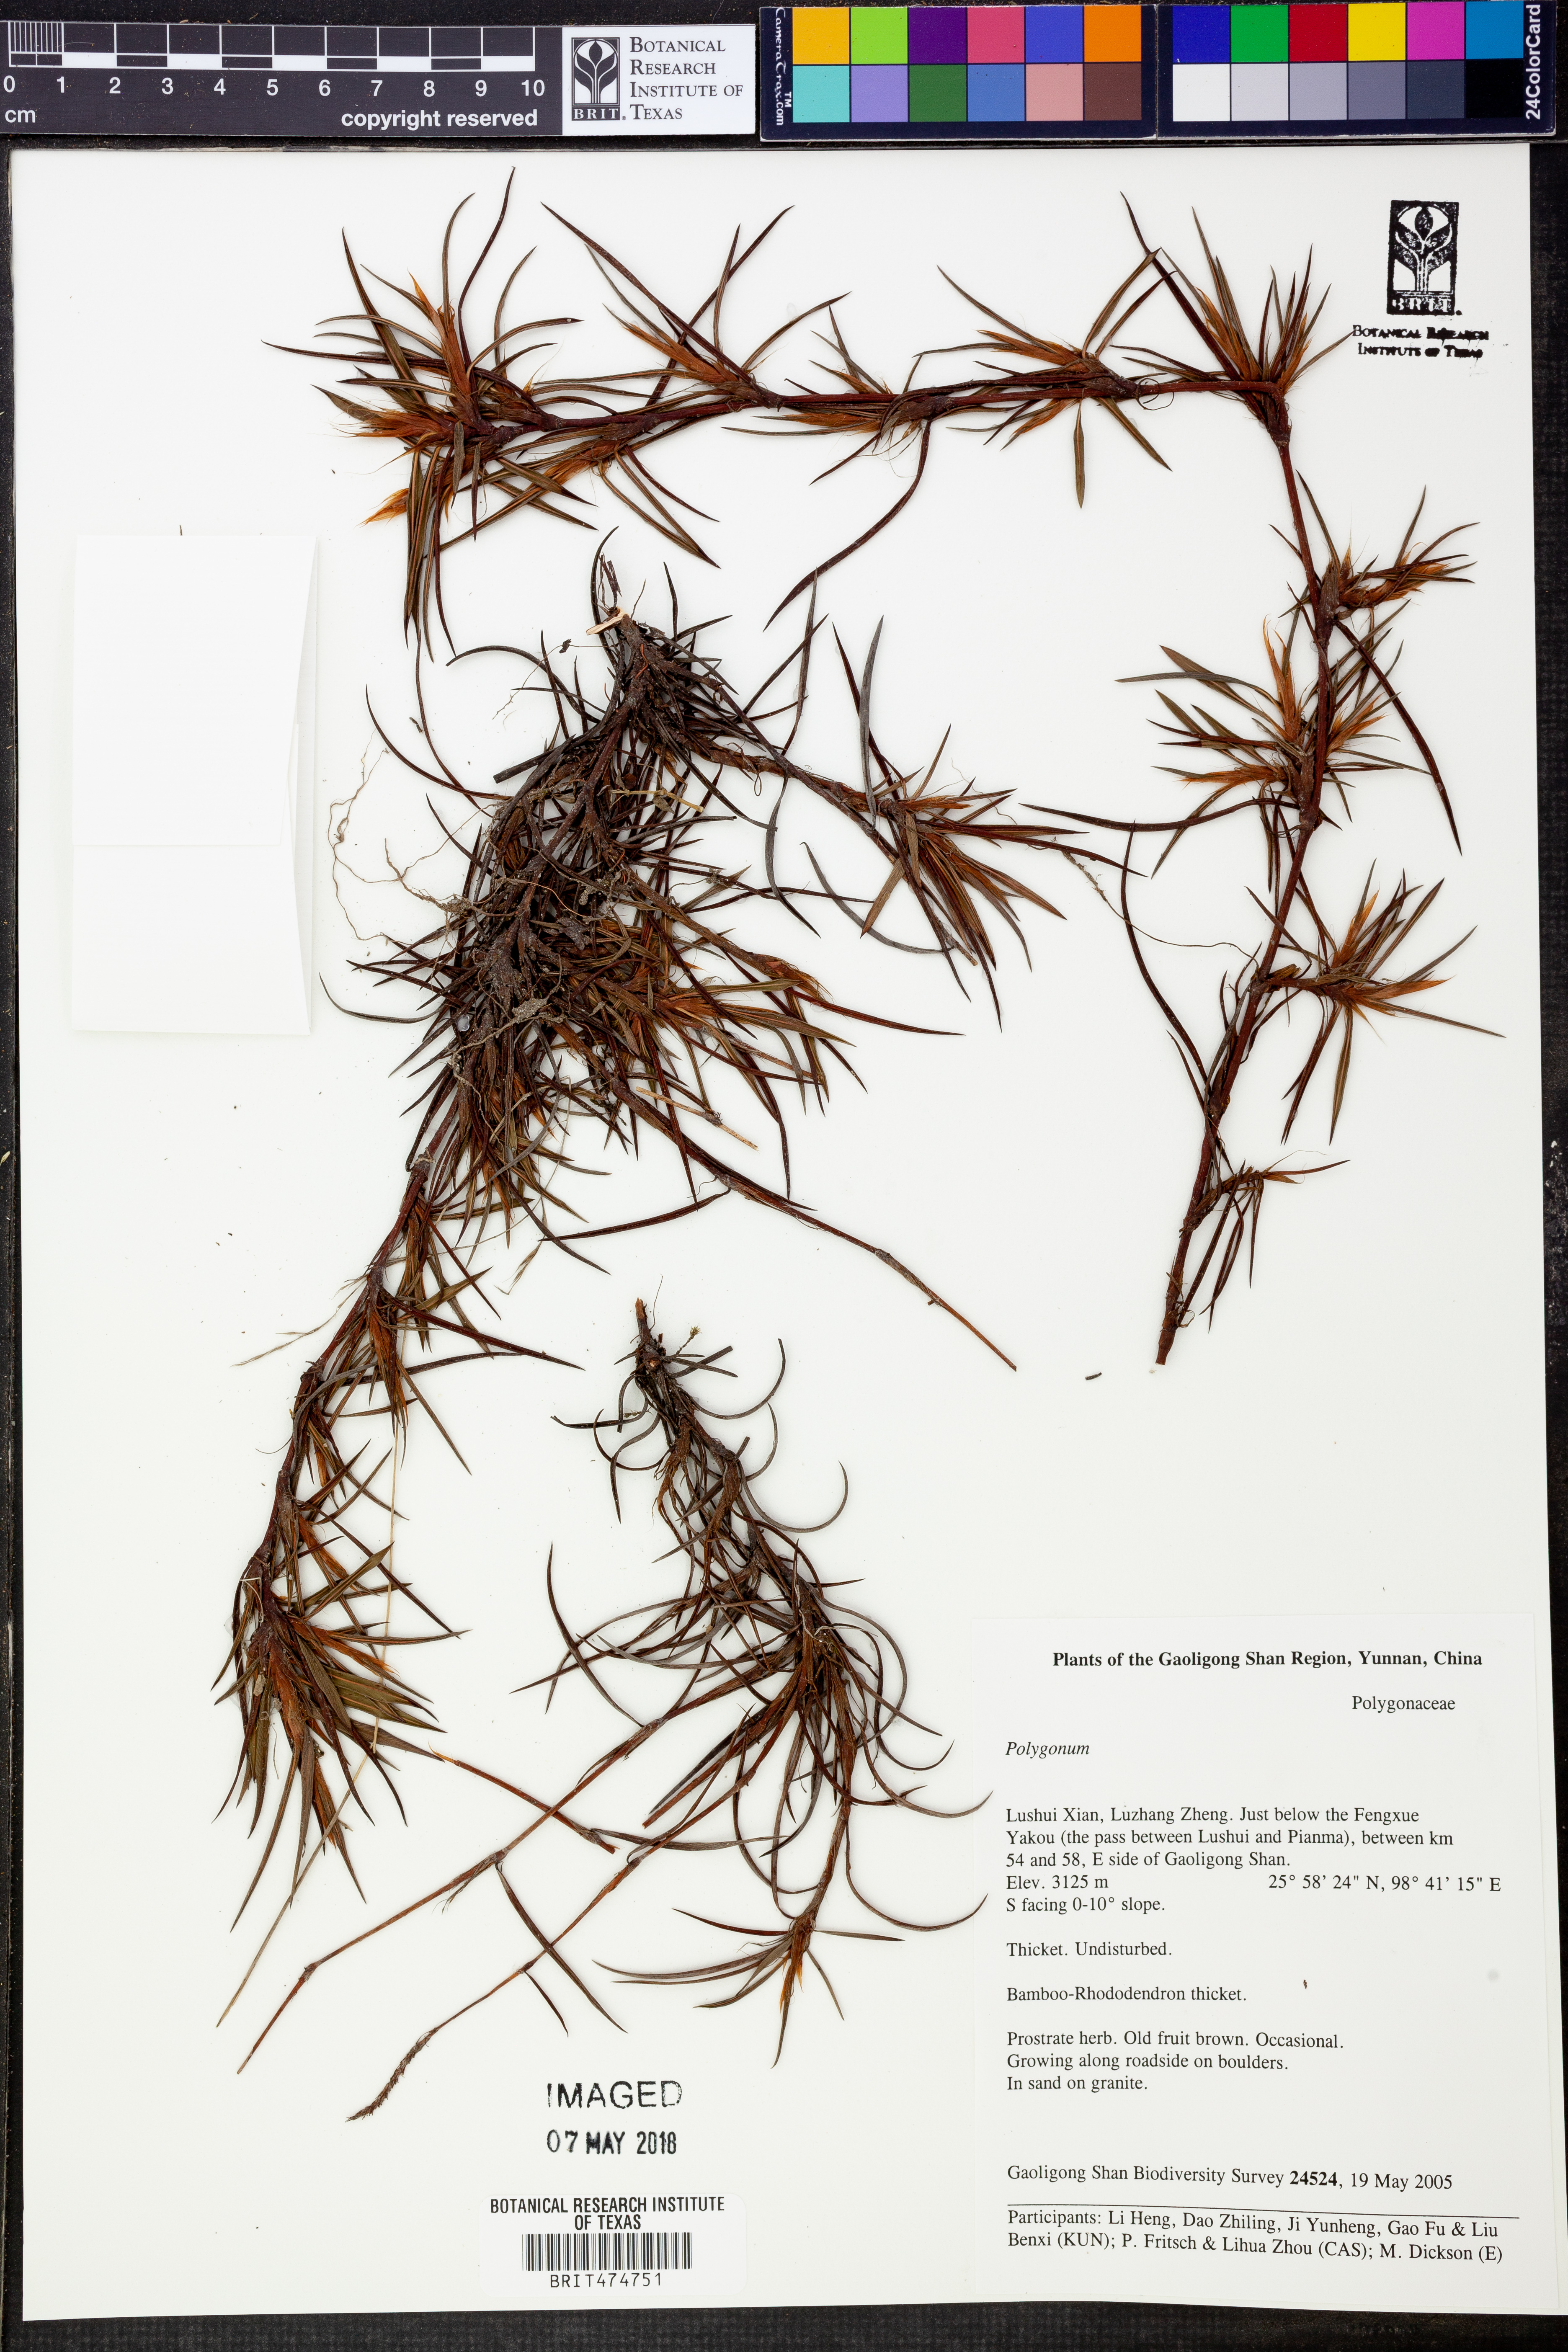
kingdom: Plantae
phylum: Tracheophyta
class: Magnoliopsida
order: Caryophyllales
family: Polygonaceae
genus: Polygonum
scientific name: Polygonum
